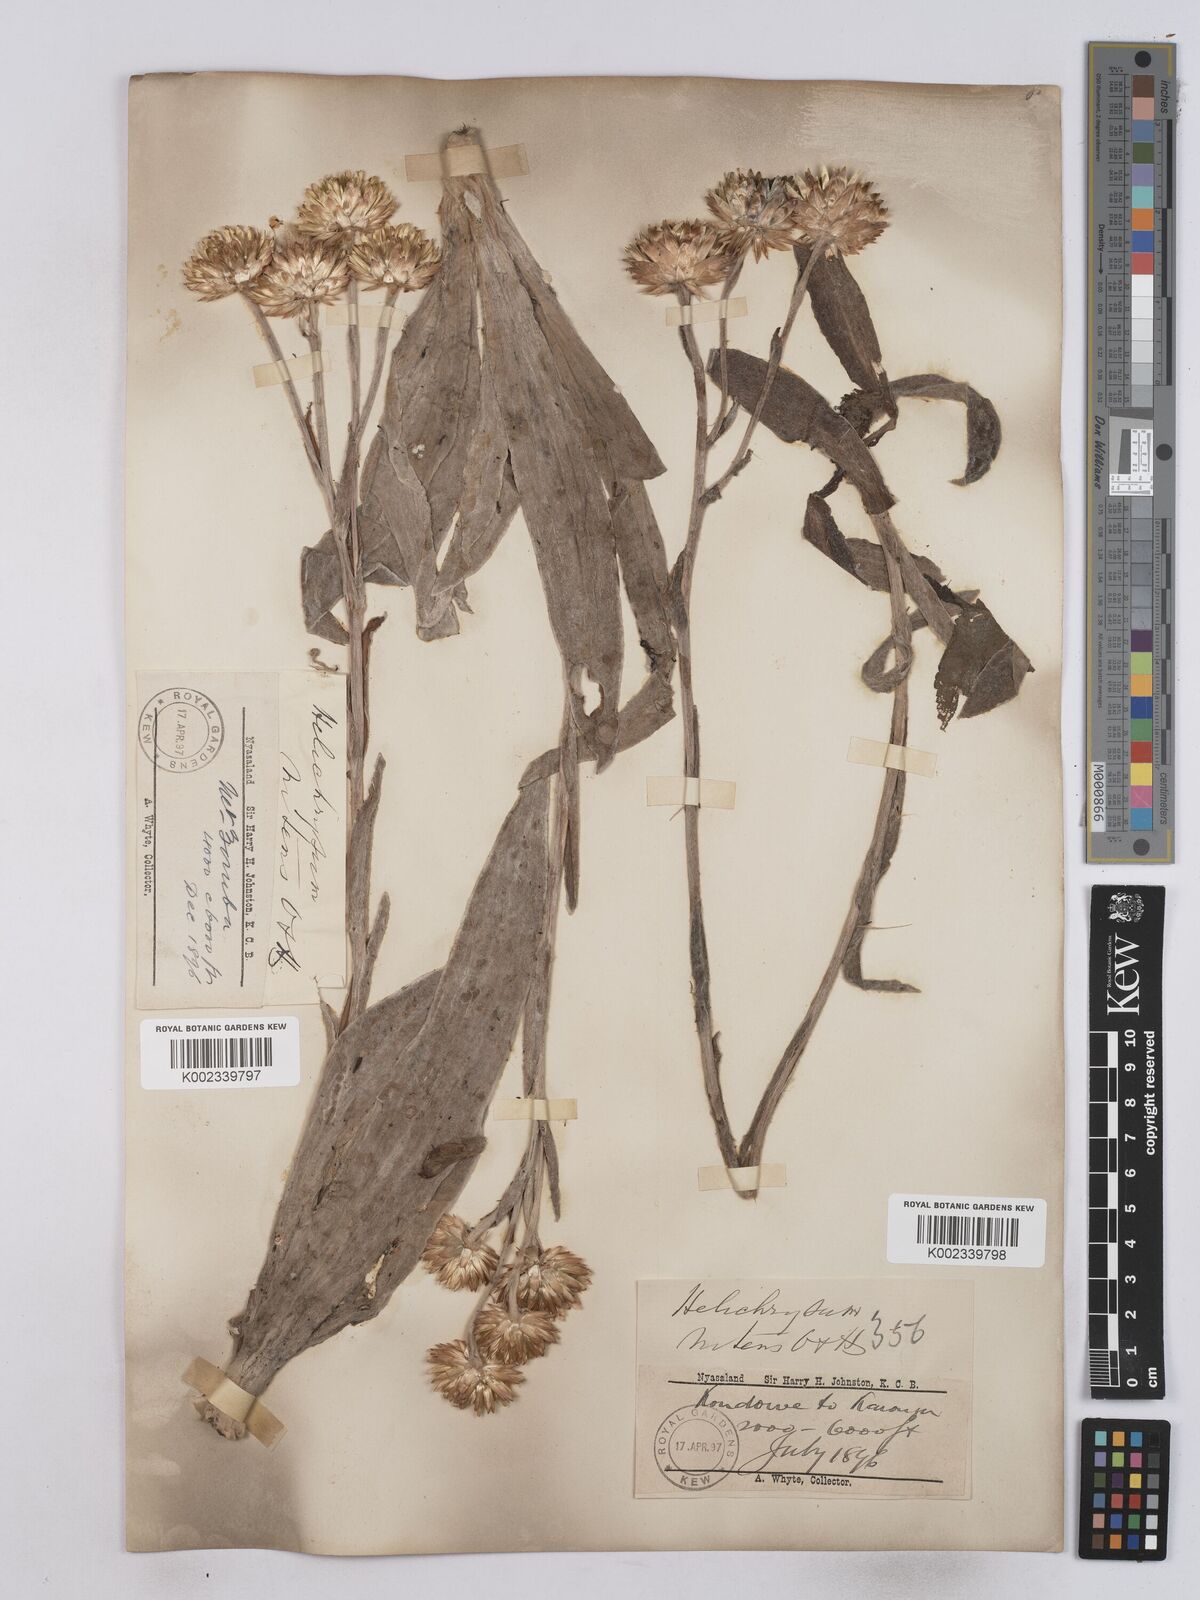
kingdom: Plantae
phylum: Tracheophyta
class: Magnoliopsida
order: Asterales
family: Asteraceae
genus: Helichrysum
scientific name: Helichrysum nitens
